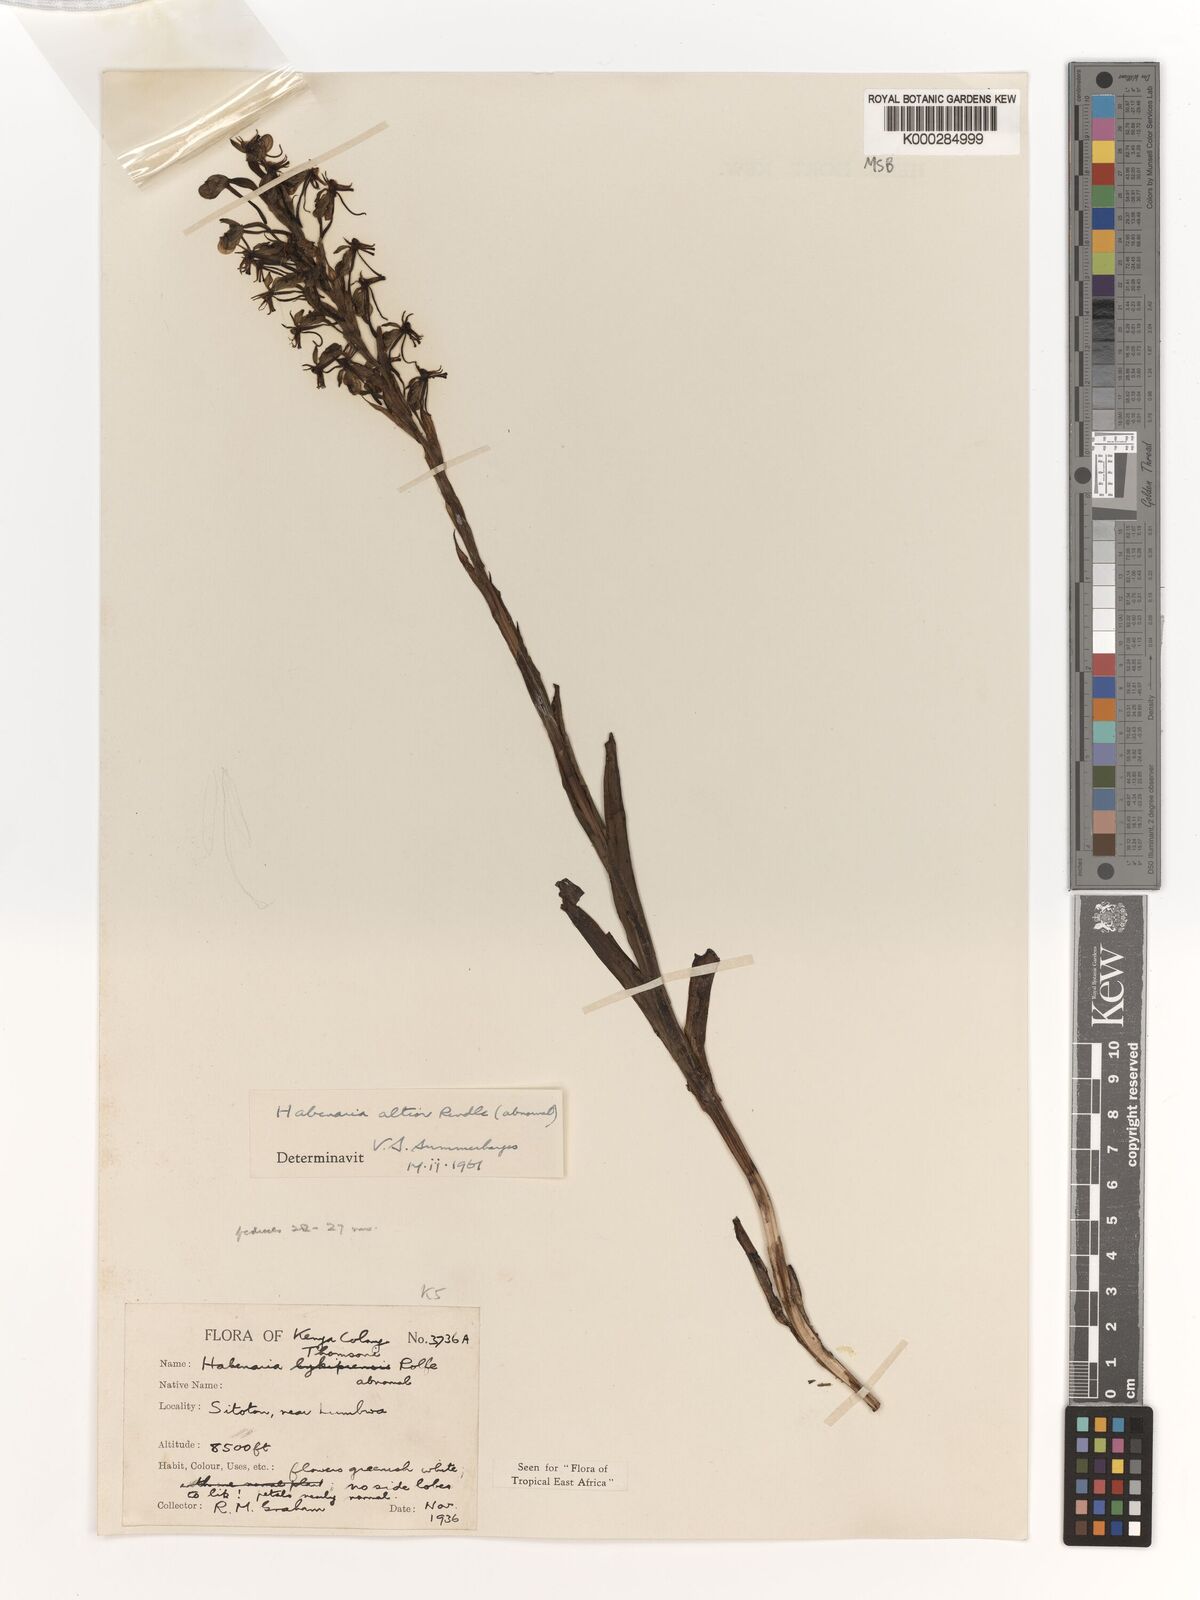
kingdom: Plantae
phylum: Tracheophyta
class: Liliopsida
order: Asparagales
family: Orchidaceae
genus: Habenaria
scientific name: Habenaria altior
